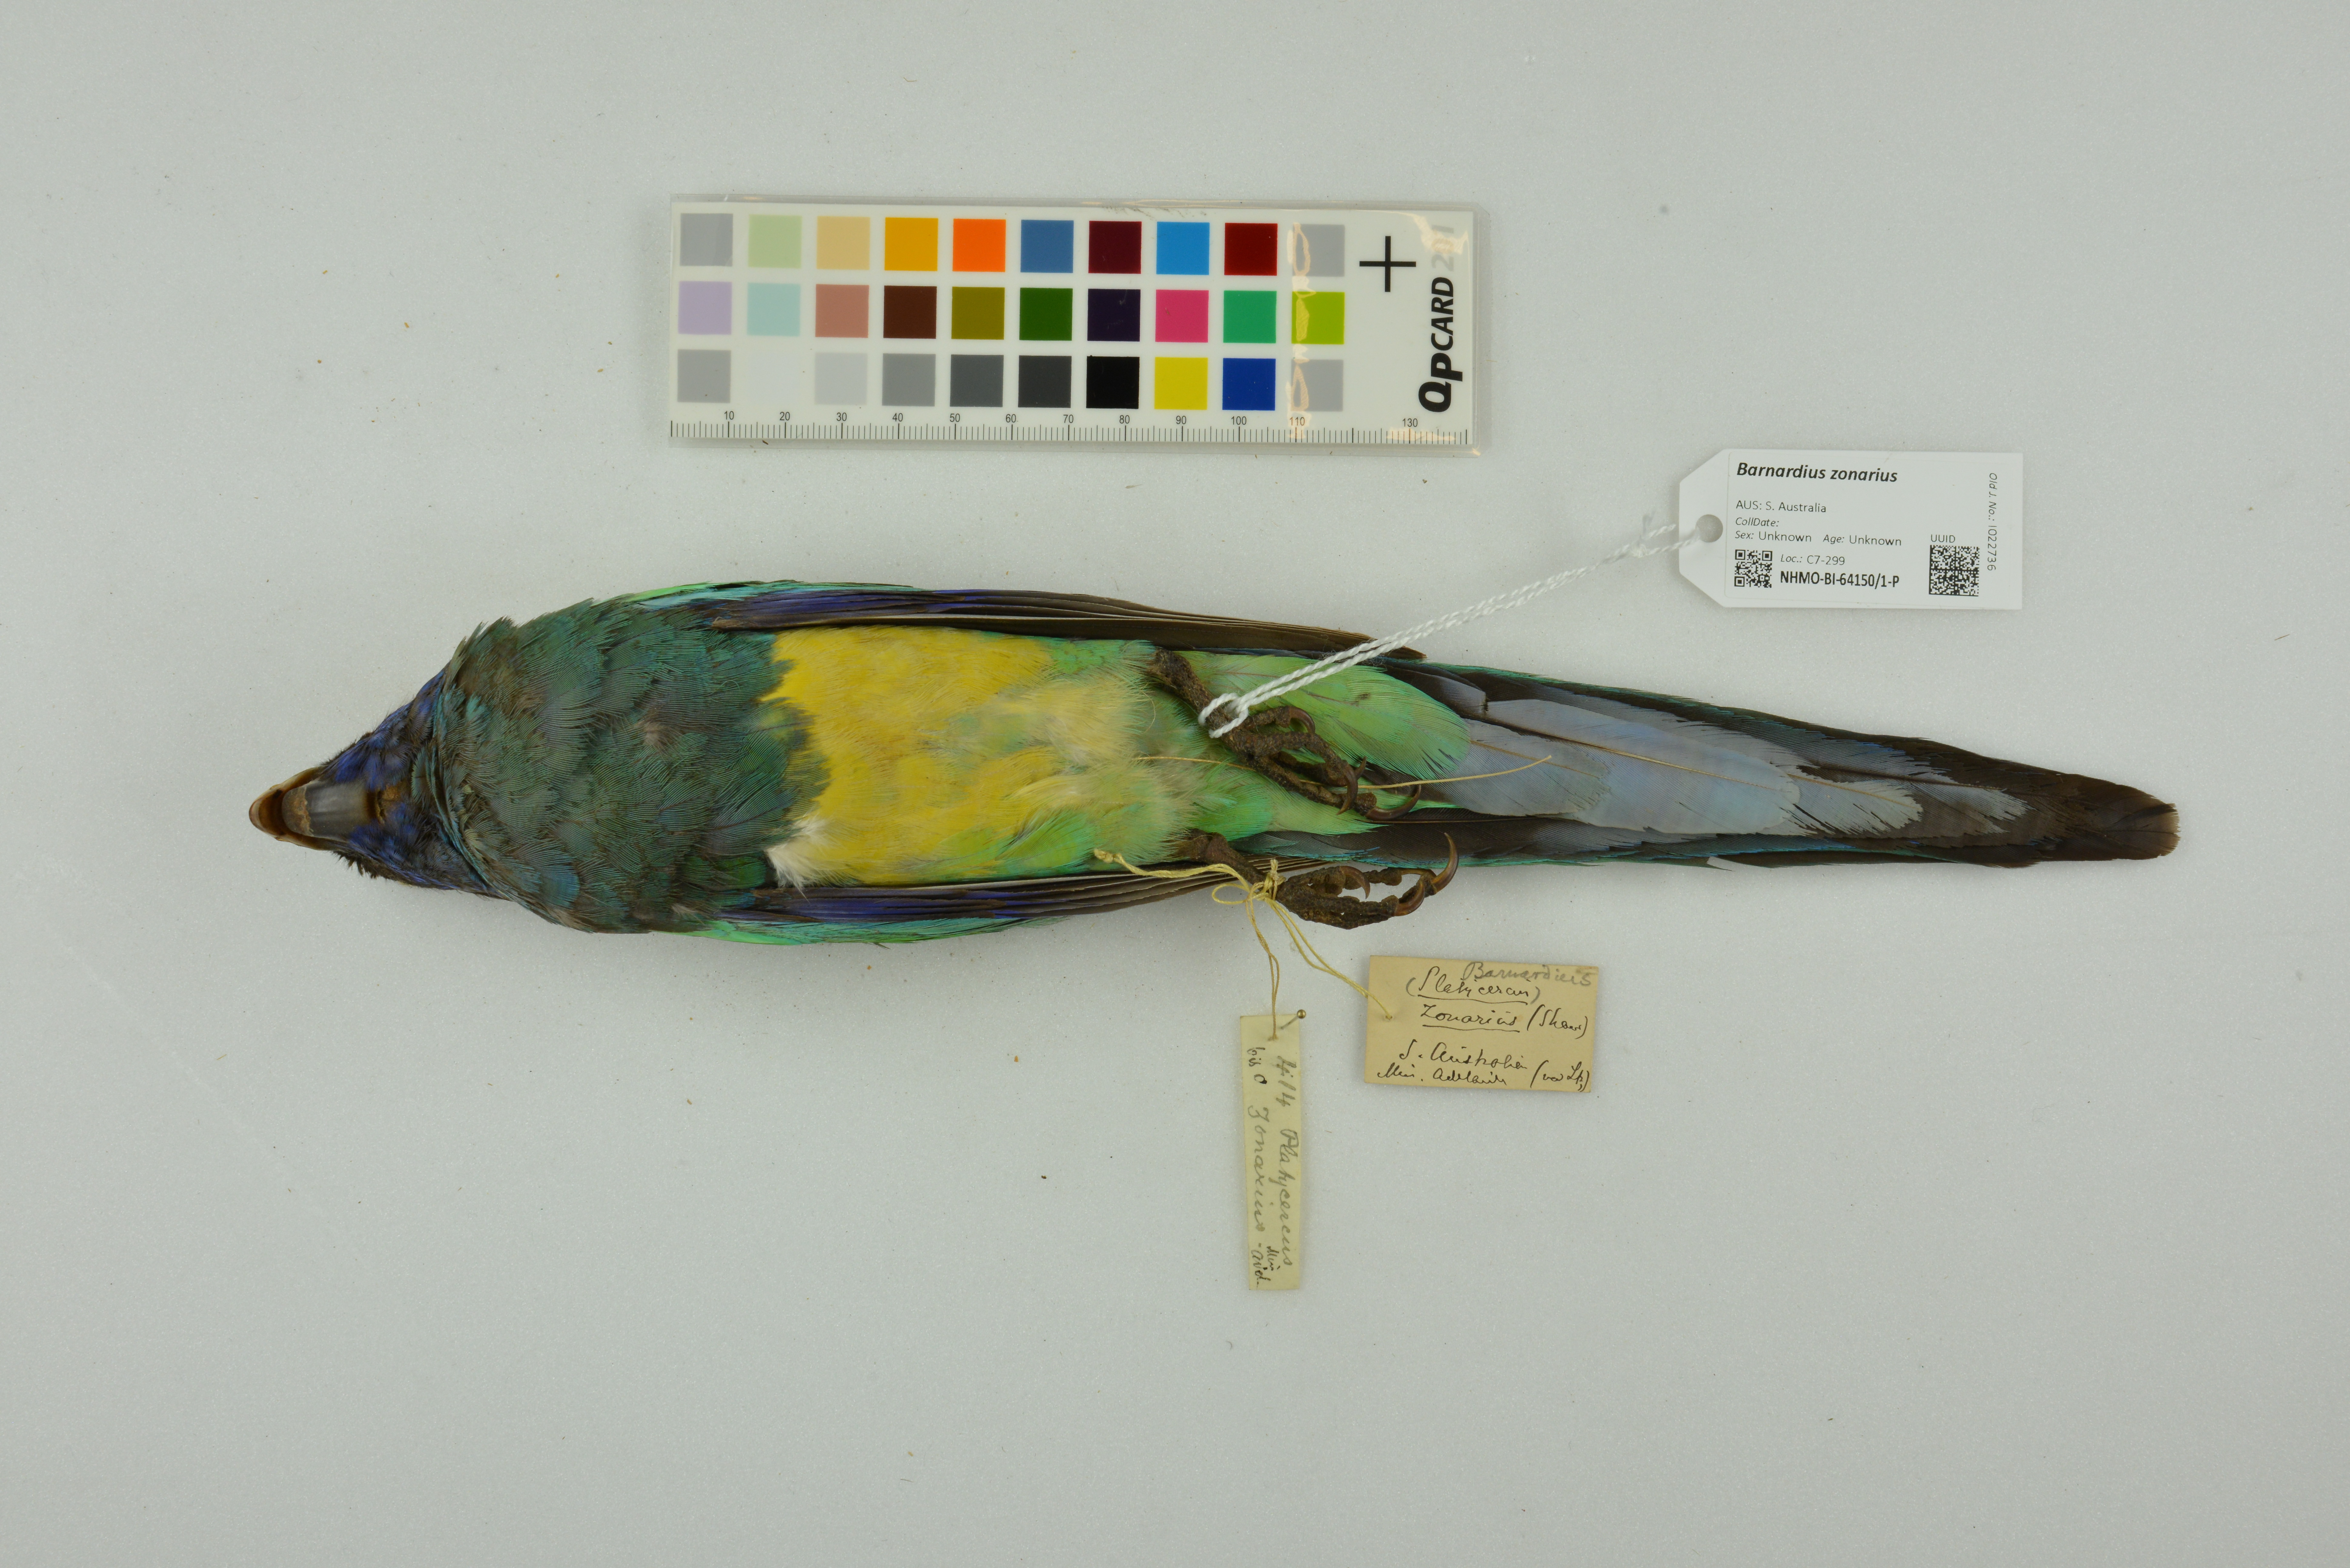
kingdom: Animalia
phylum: Chordata
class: Aves
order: Psittaciformes
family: Psittacidae
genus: Barnardius
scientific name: Barnardius zonarius
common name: Australian ringneck
